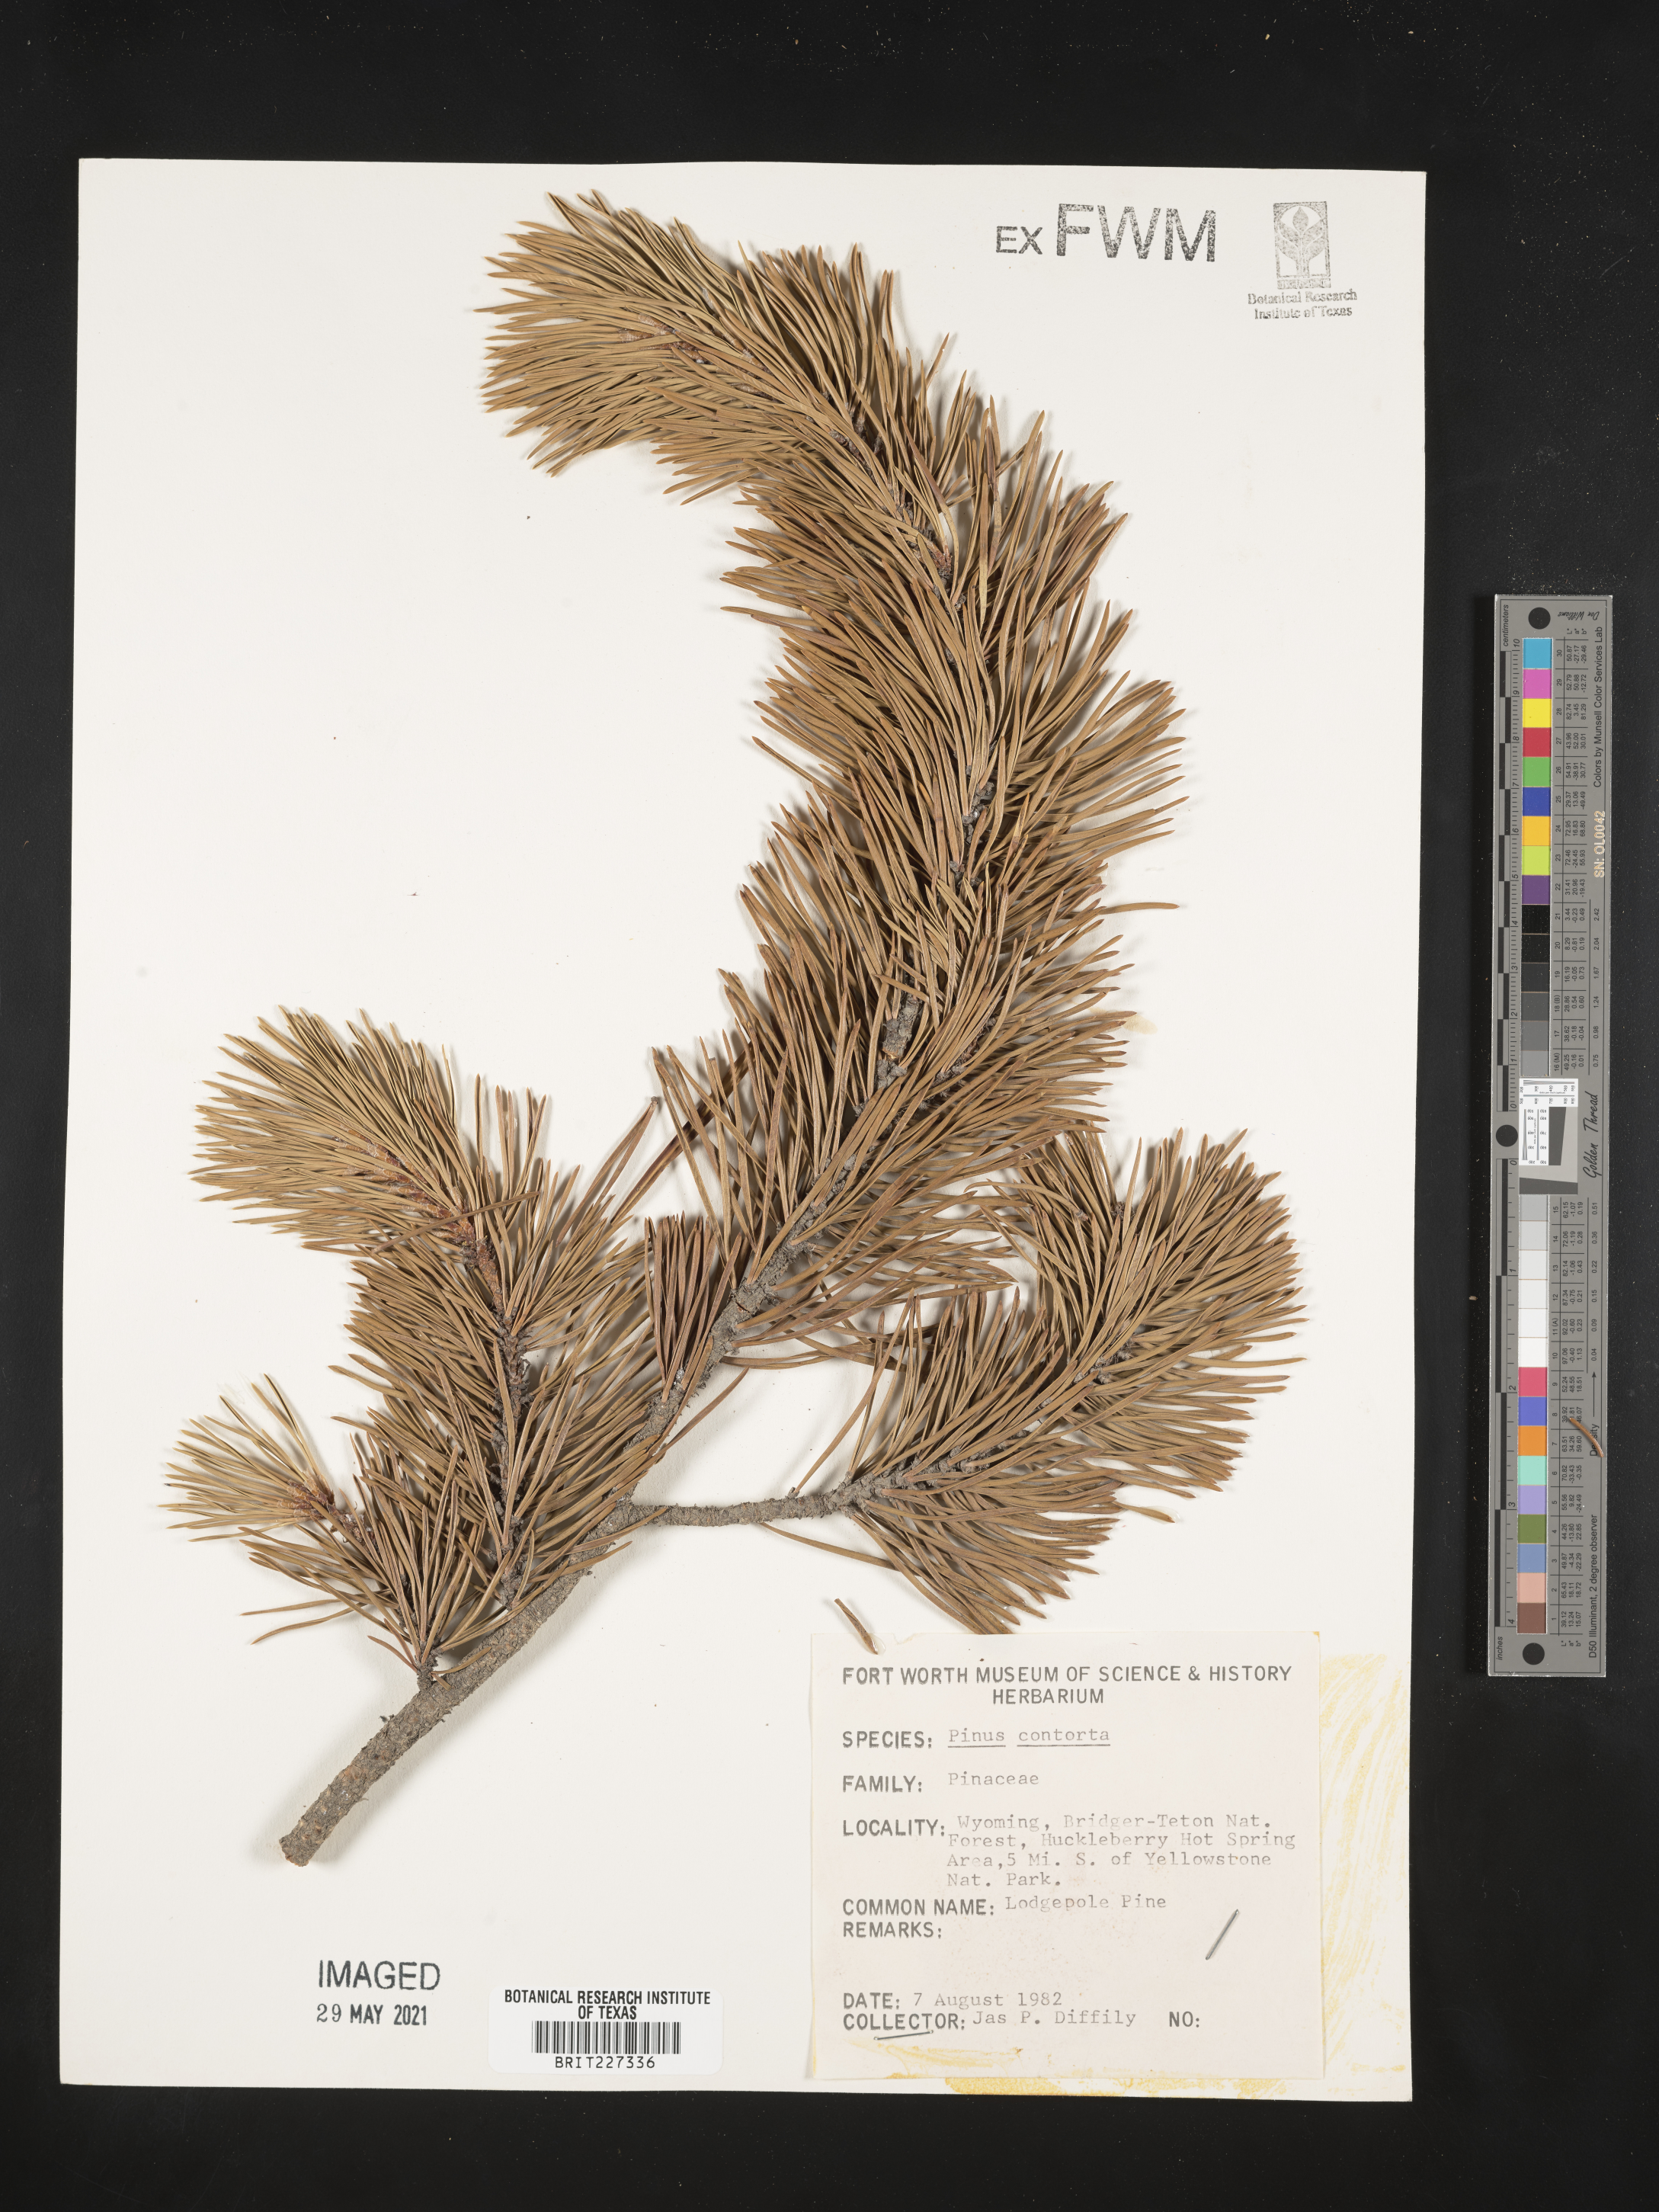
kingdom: Plantae
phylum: Tracheophyta
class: Pinopsida
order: Pinales
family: Pinaceae
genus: Pinus
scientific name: Pinus contorta
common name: Lodgepole pine
